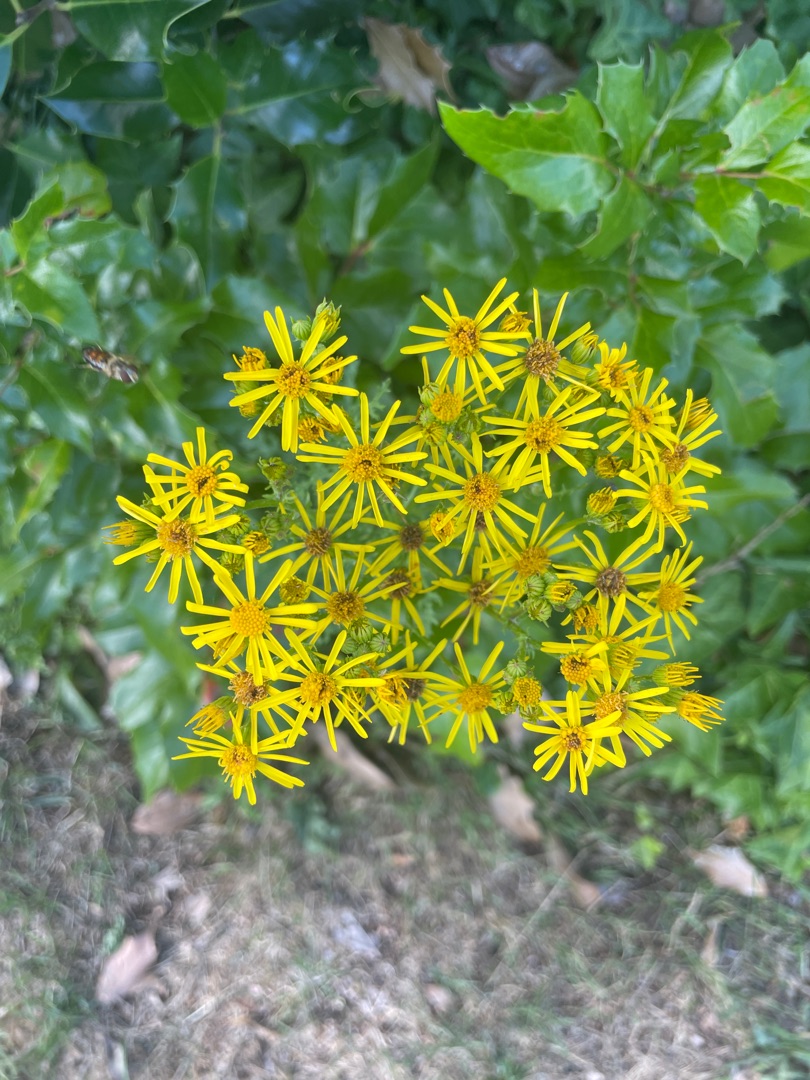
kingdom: Plantae
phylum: Tracheophyta
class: Magnoliopsida
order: Asterales
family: Asteraceae
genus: Jacobaea
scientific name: Jacobaea vulgaris
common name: Eng-brandbæger
